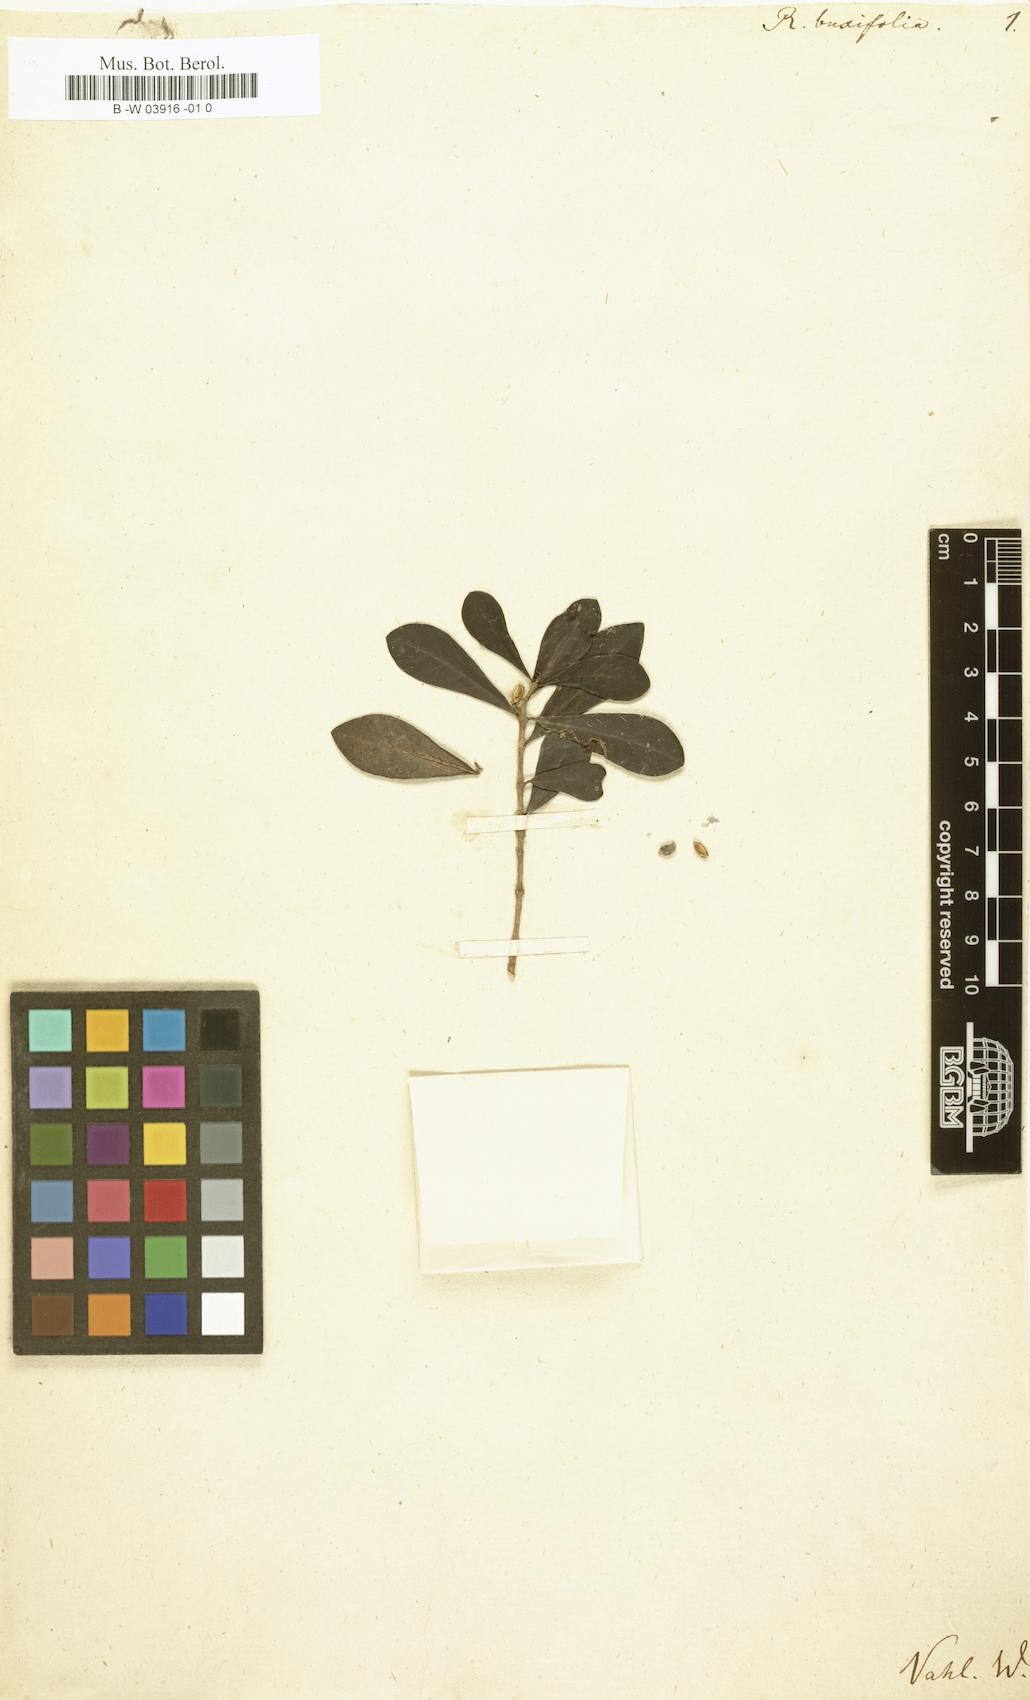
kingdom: Plantae
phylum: Tracheophyta
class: Magnoliopsida
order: Gentianales
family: Rubiaceae
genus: Rondeletia
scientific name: Rondeletia buxifolia
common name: Pribby
